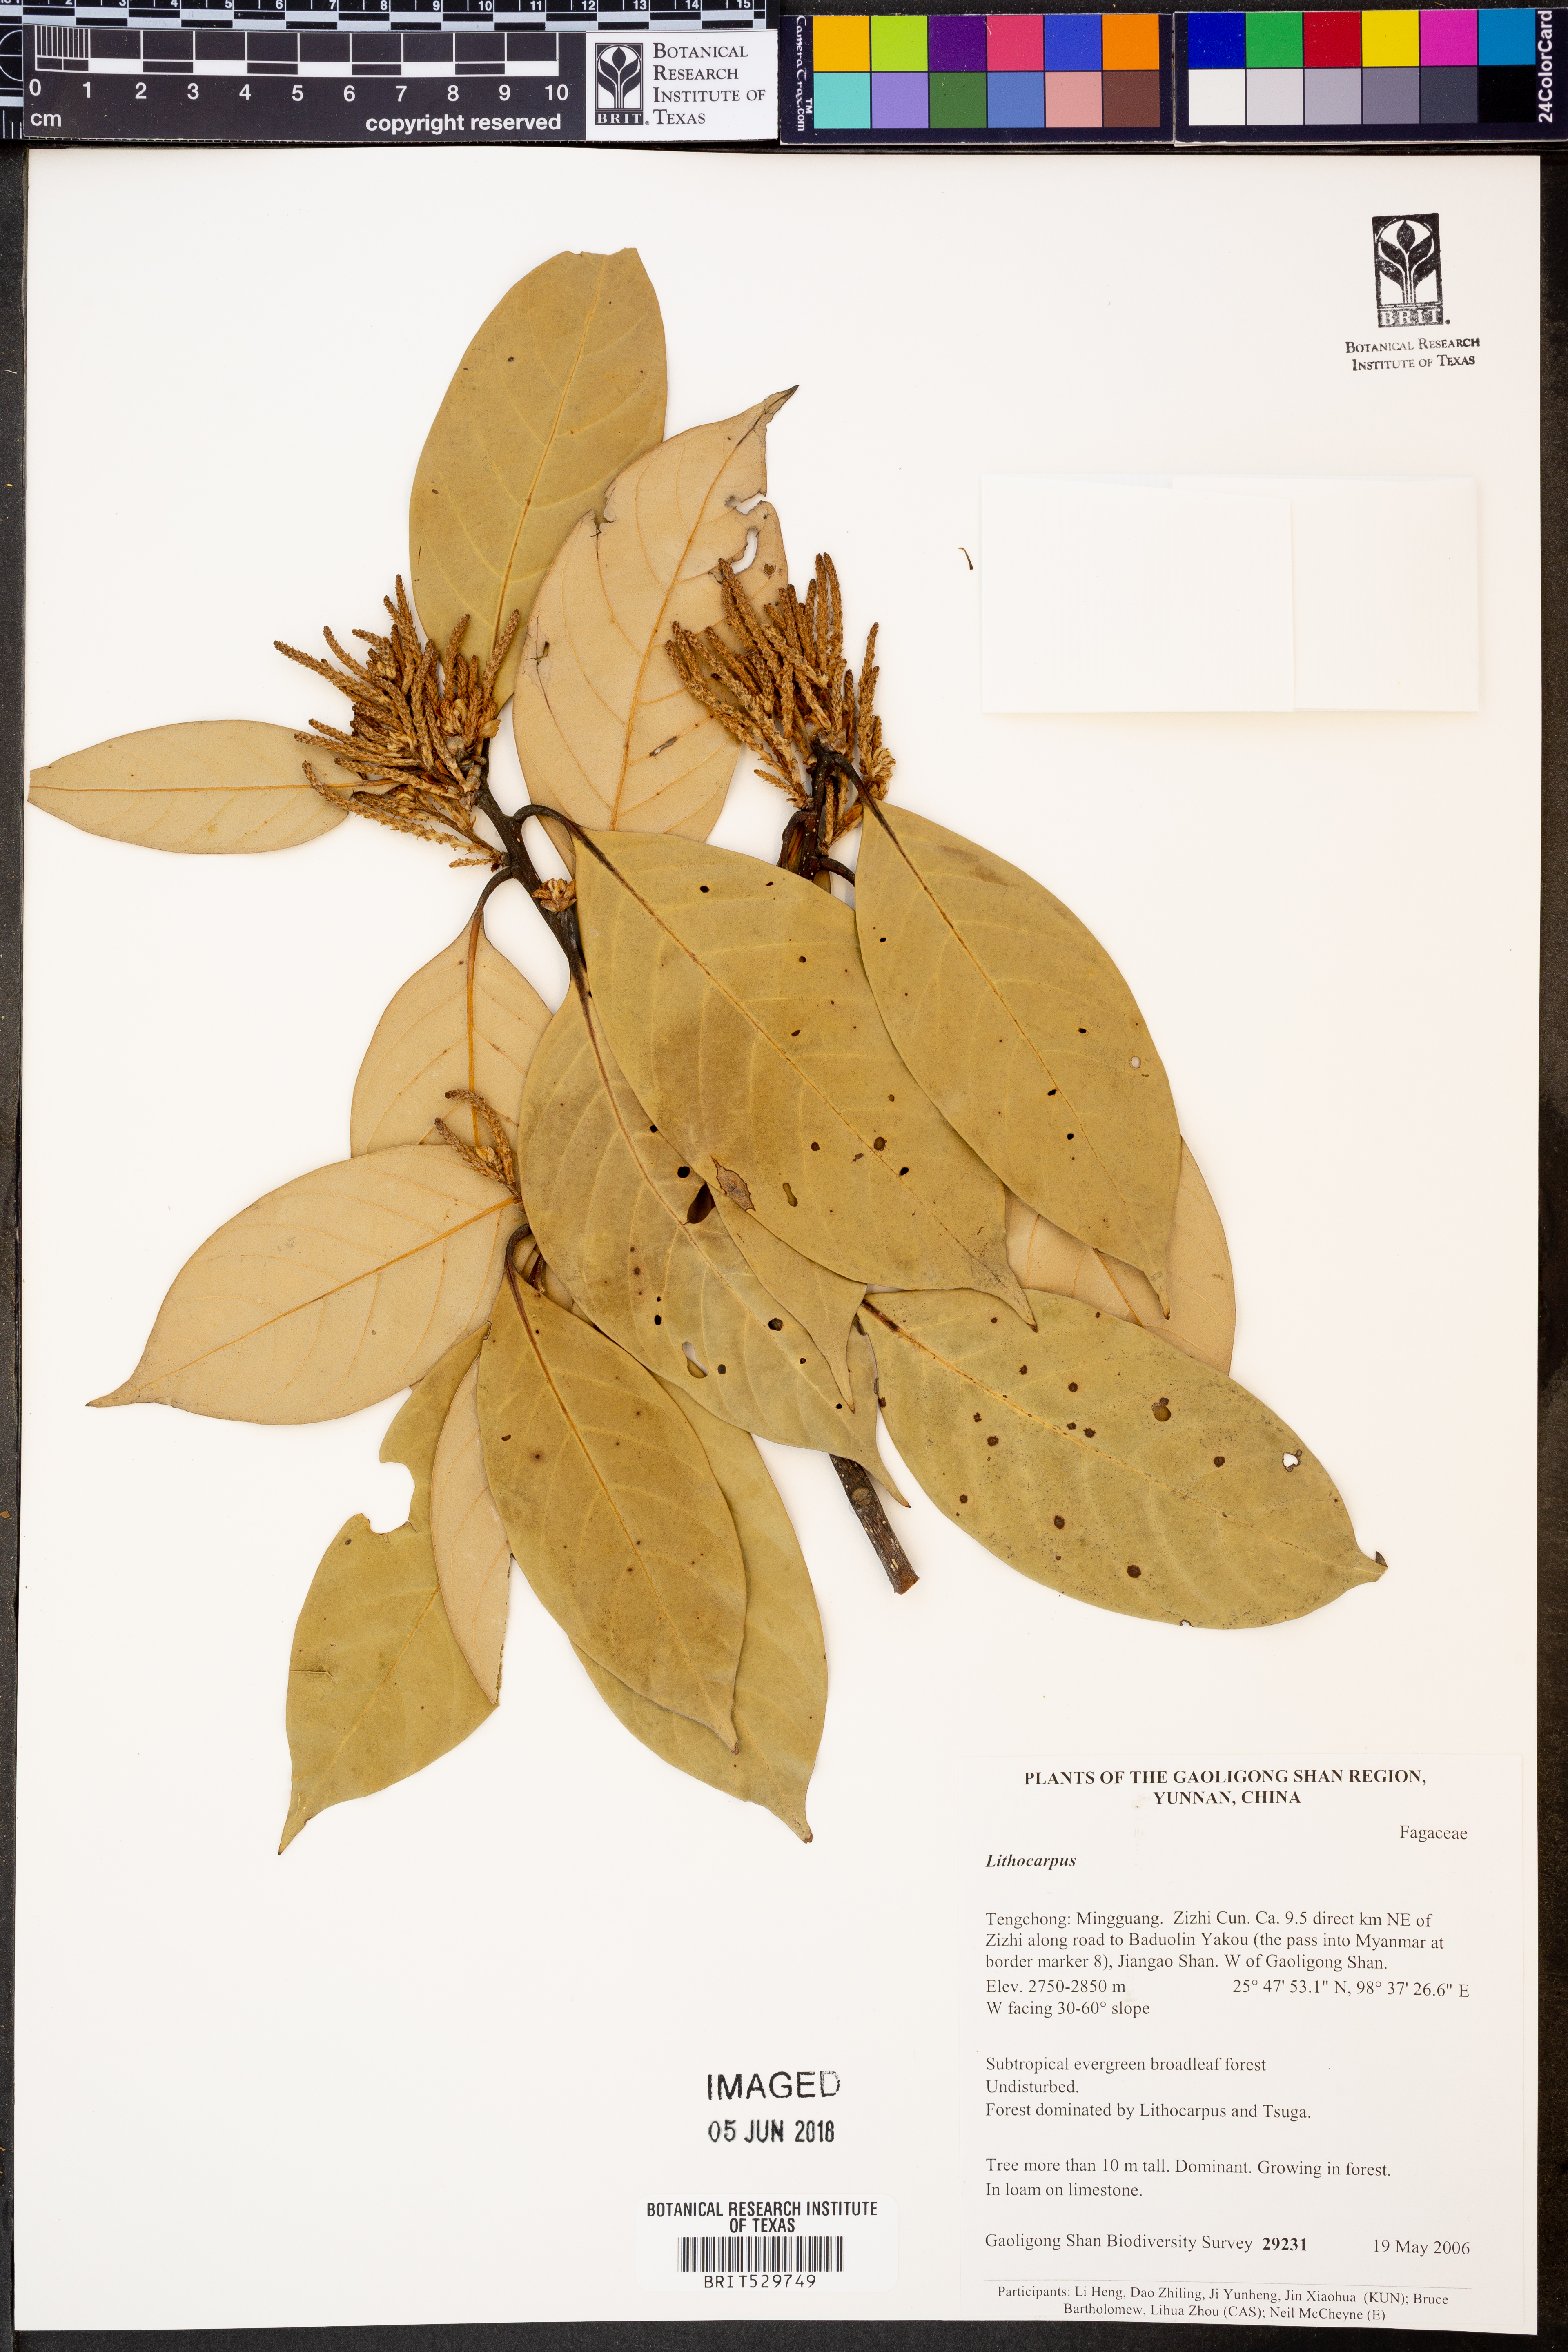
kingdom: Plantae
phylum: Tracheophyta
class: Magnoliopsida
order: Fagales
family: Fagaceae
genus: Lithocarpus
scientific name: Lithocarpus
